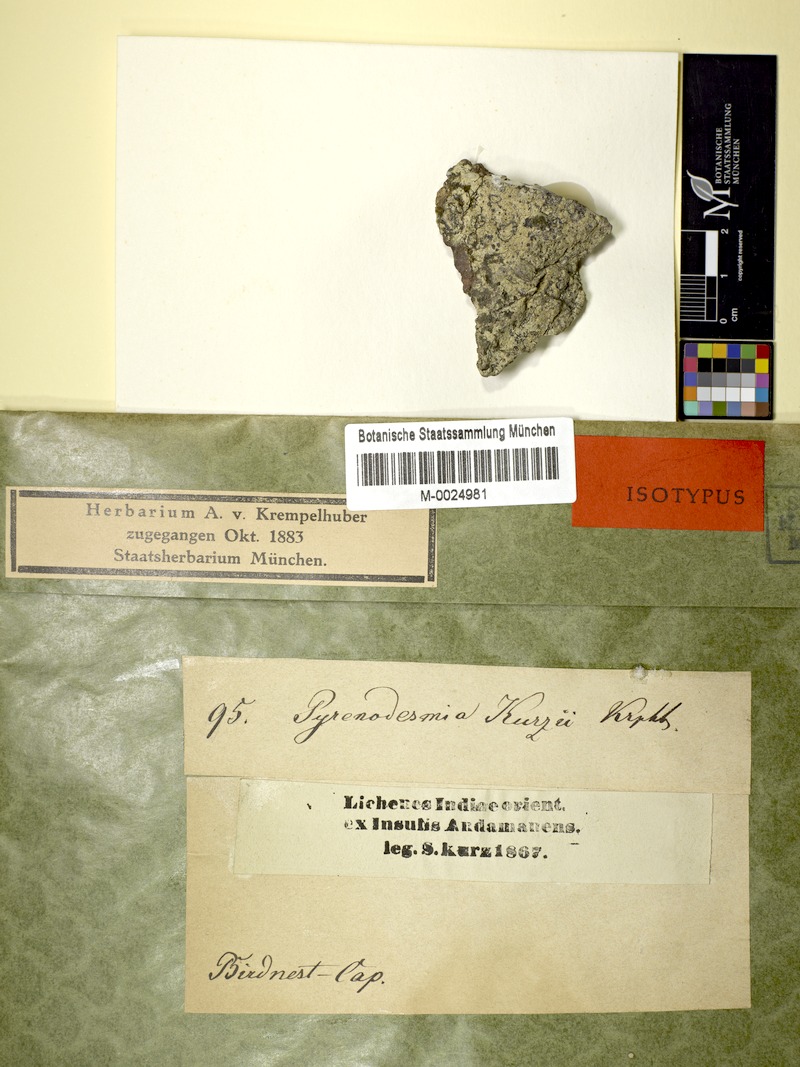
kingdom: Fungi
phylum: Ascomycota
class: Lecanoromycetes
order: Teloschistales
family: Teloschistaceae
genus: Caloplaca
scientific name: Caloplaca kurzii
